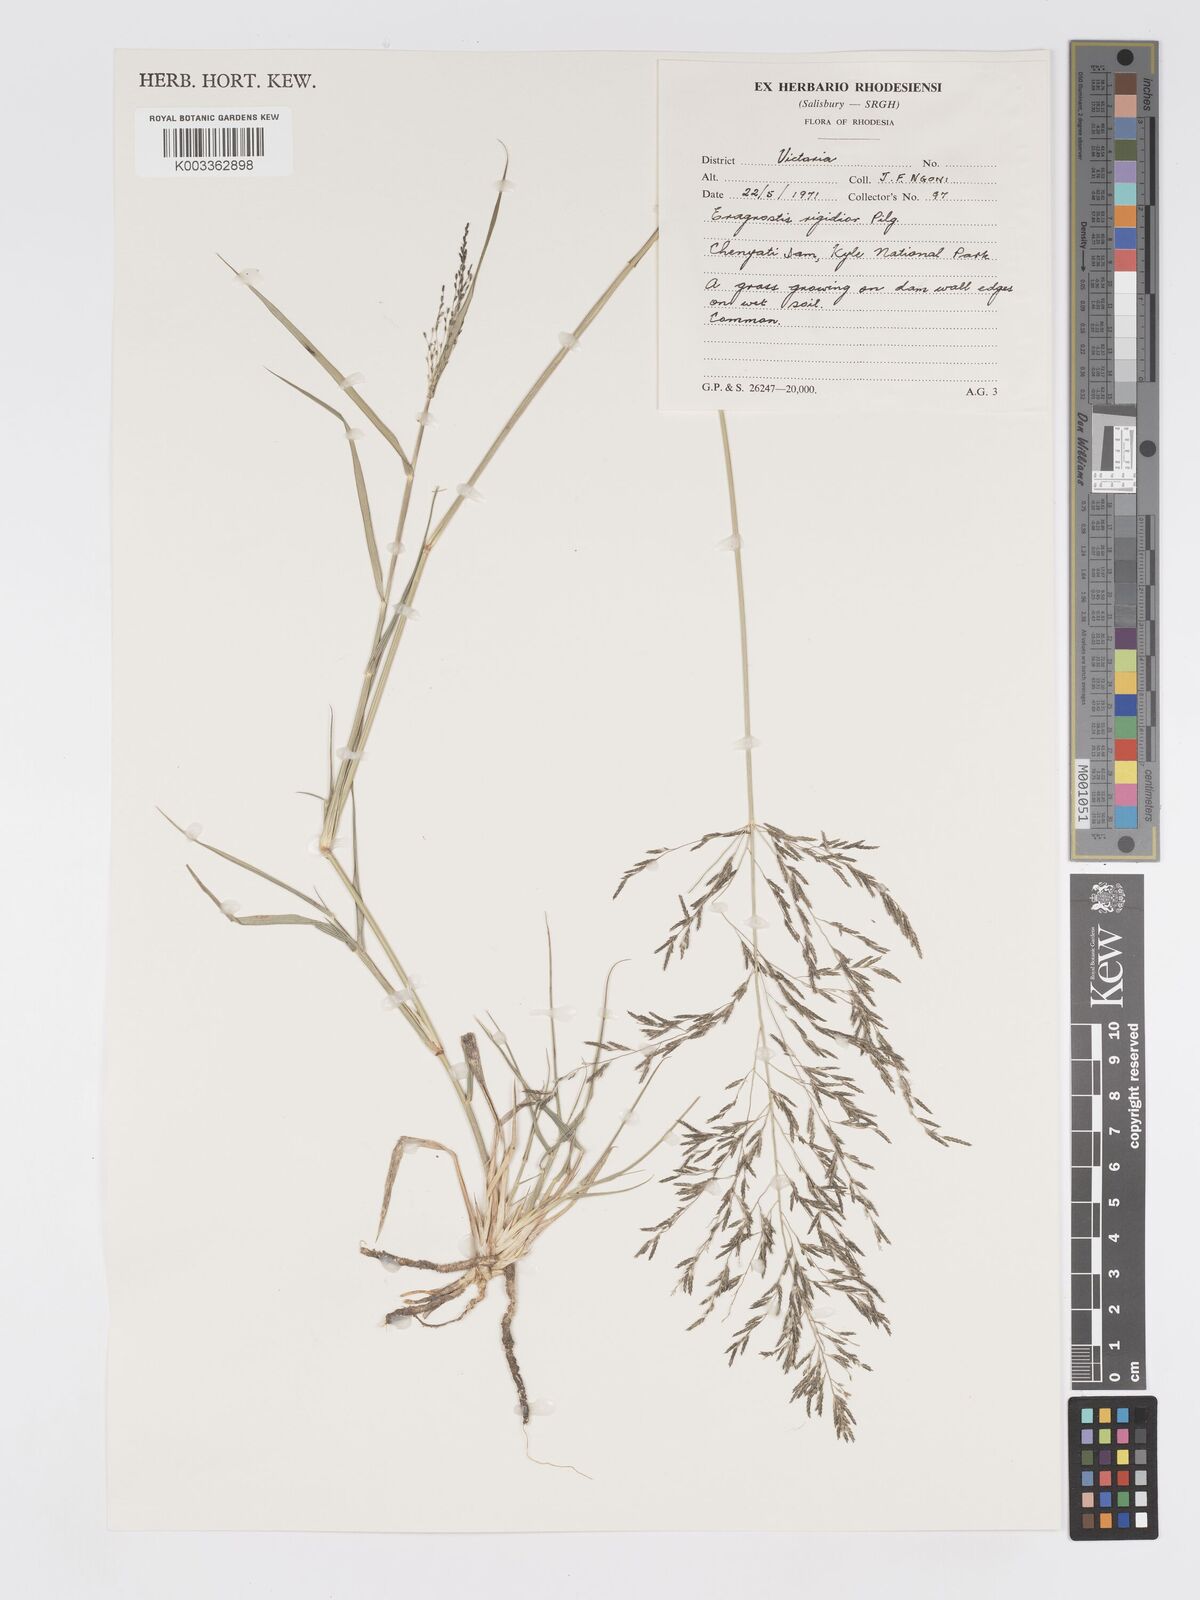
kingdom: Plantae
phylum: Tracheophyta
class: Liliopsida
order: Poales
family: Poaceae
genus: Eragrostis
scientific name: Eragrostis cylindriflora
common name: Cylinderflower lovegrass
